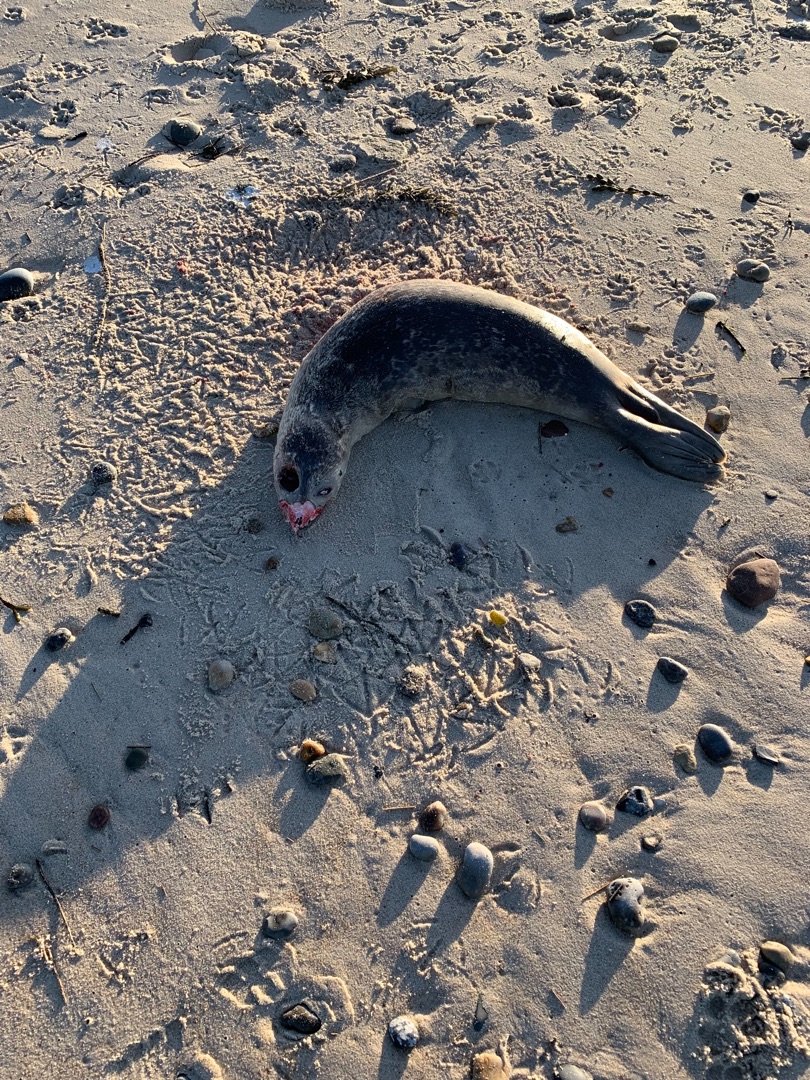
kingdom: Animalia
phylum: Chordata
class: Mammalia
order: Carnivora
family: Phocidae
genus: Phoca
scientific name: Phoca vitulina
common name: Spættet sæl
